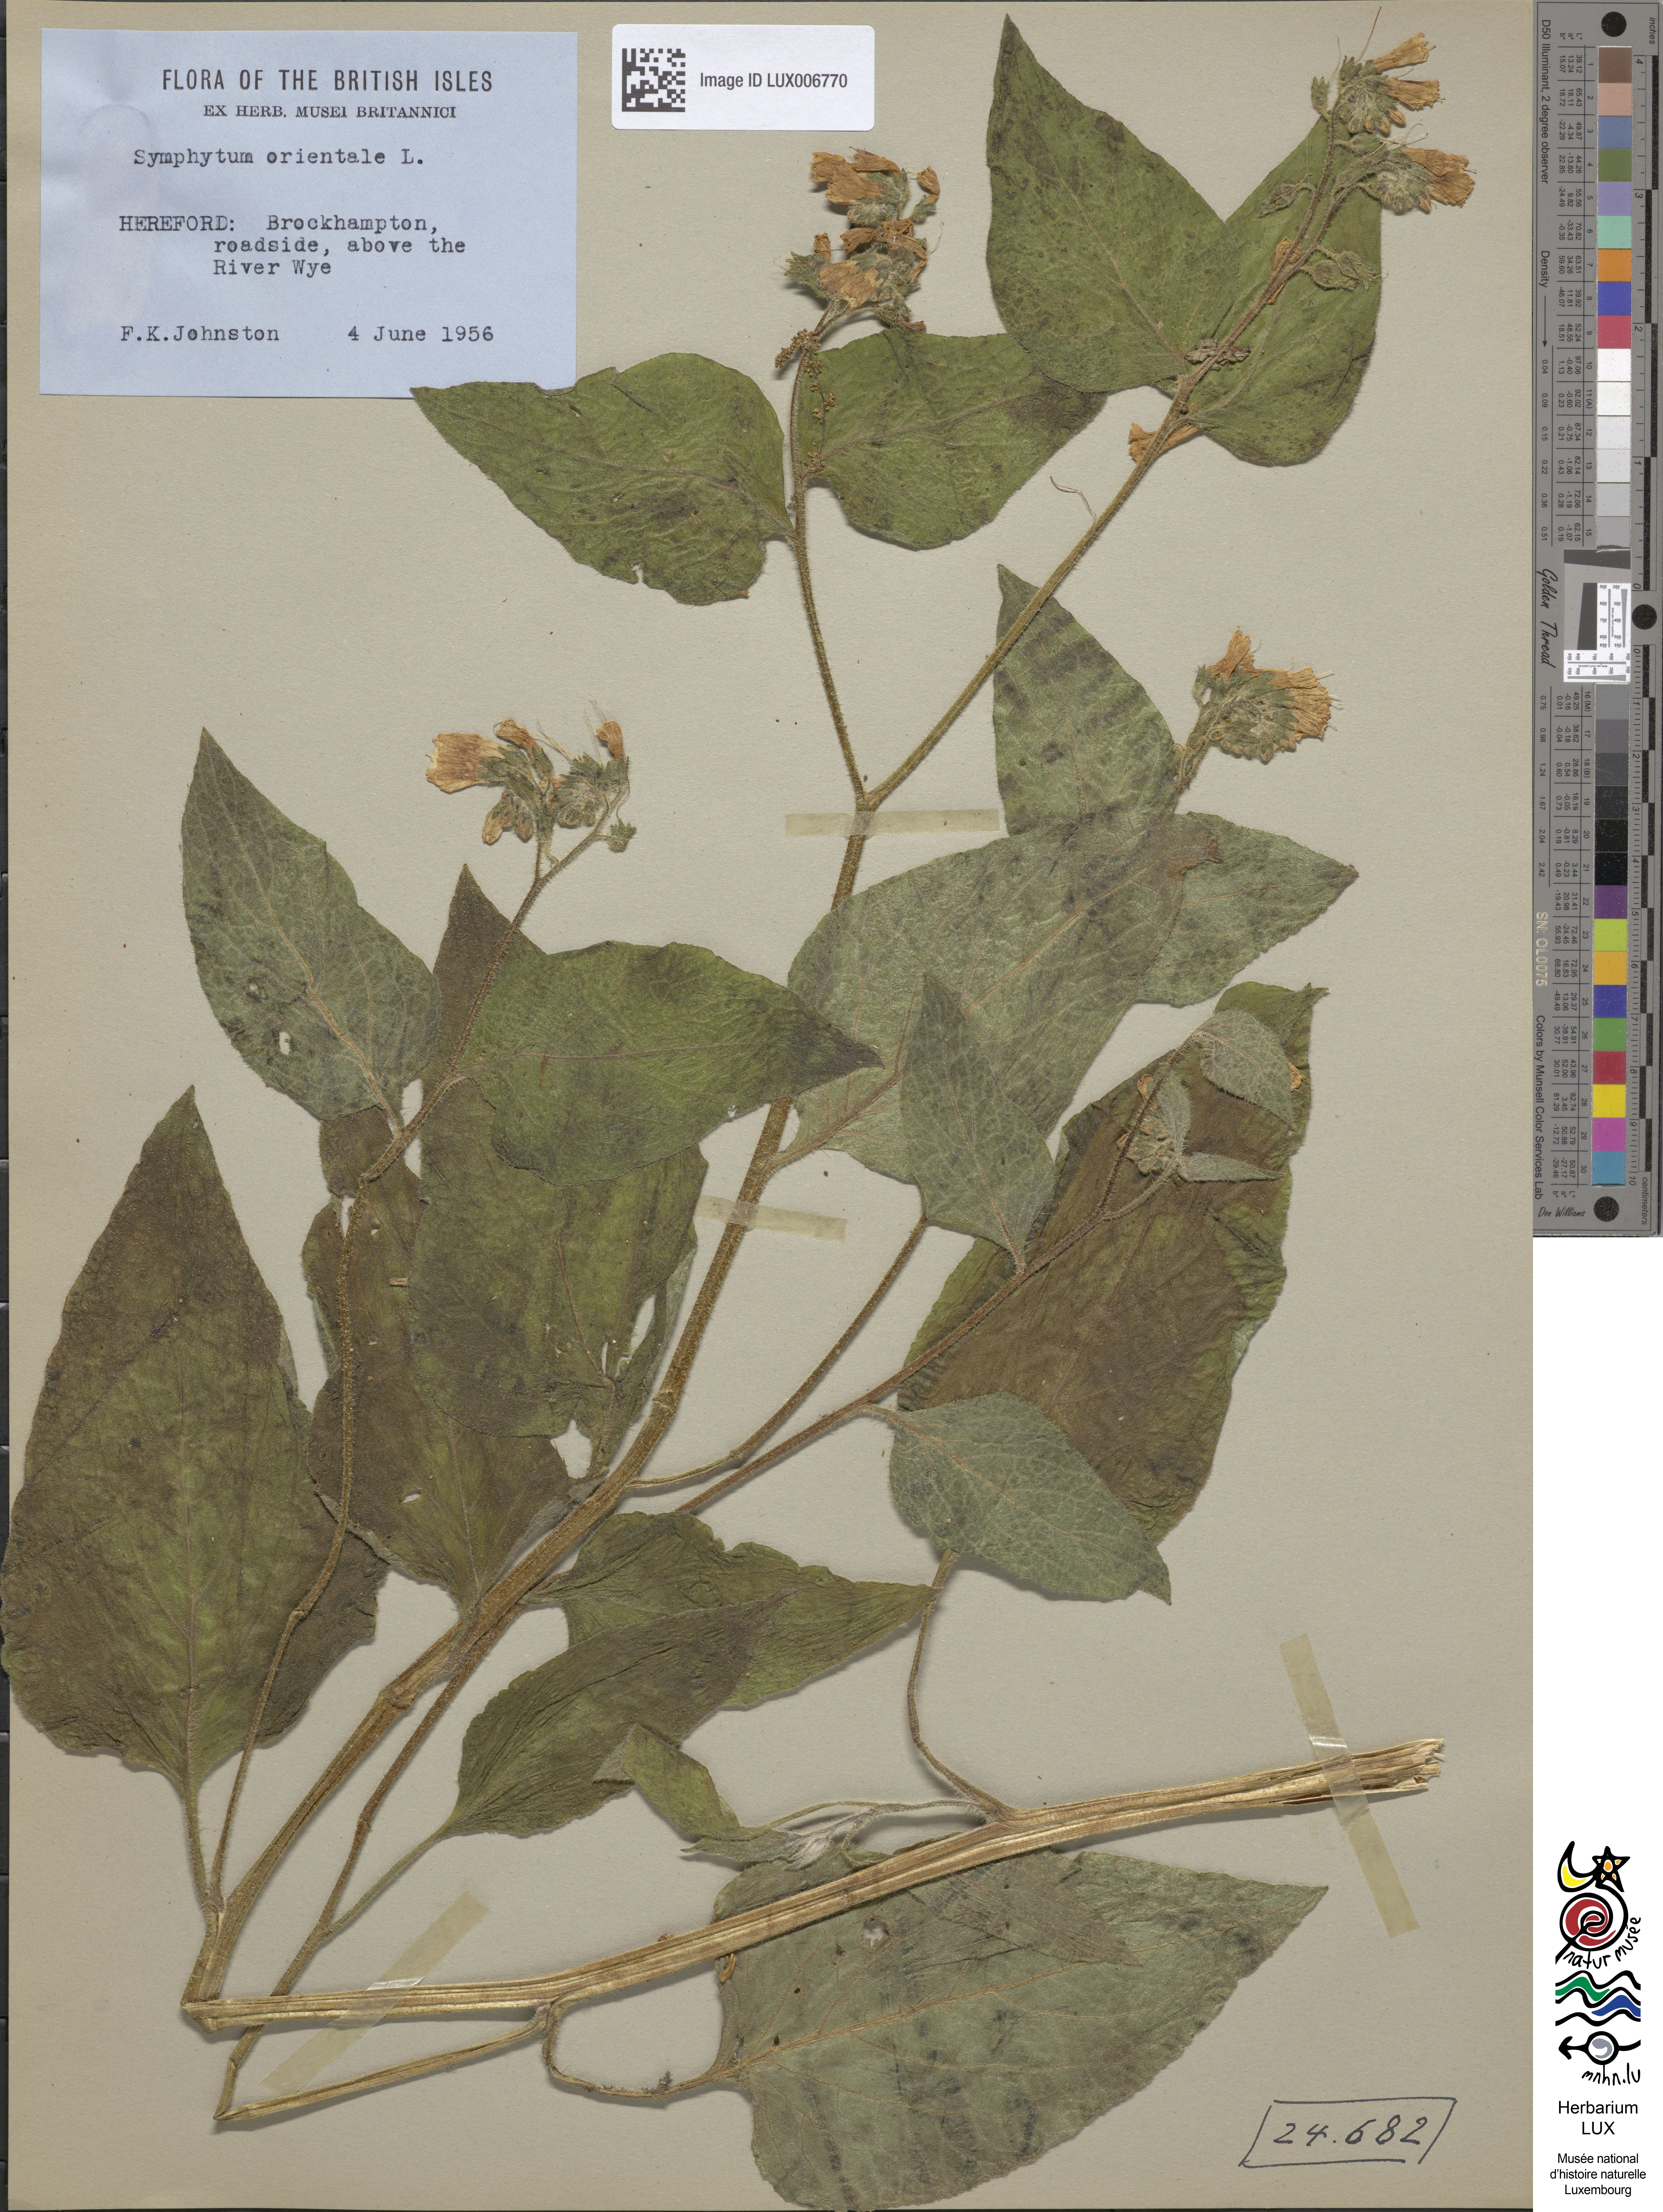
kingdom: Plantae
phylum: Tracheophyta
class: Magnoliopsida
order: Boraginales
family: Boraginaceae
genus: Symphytum
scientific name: Symphytum orientale
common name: White comfrey
